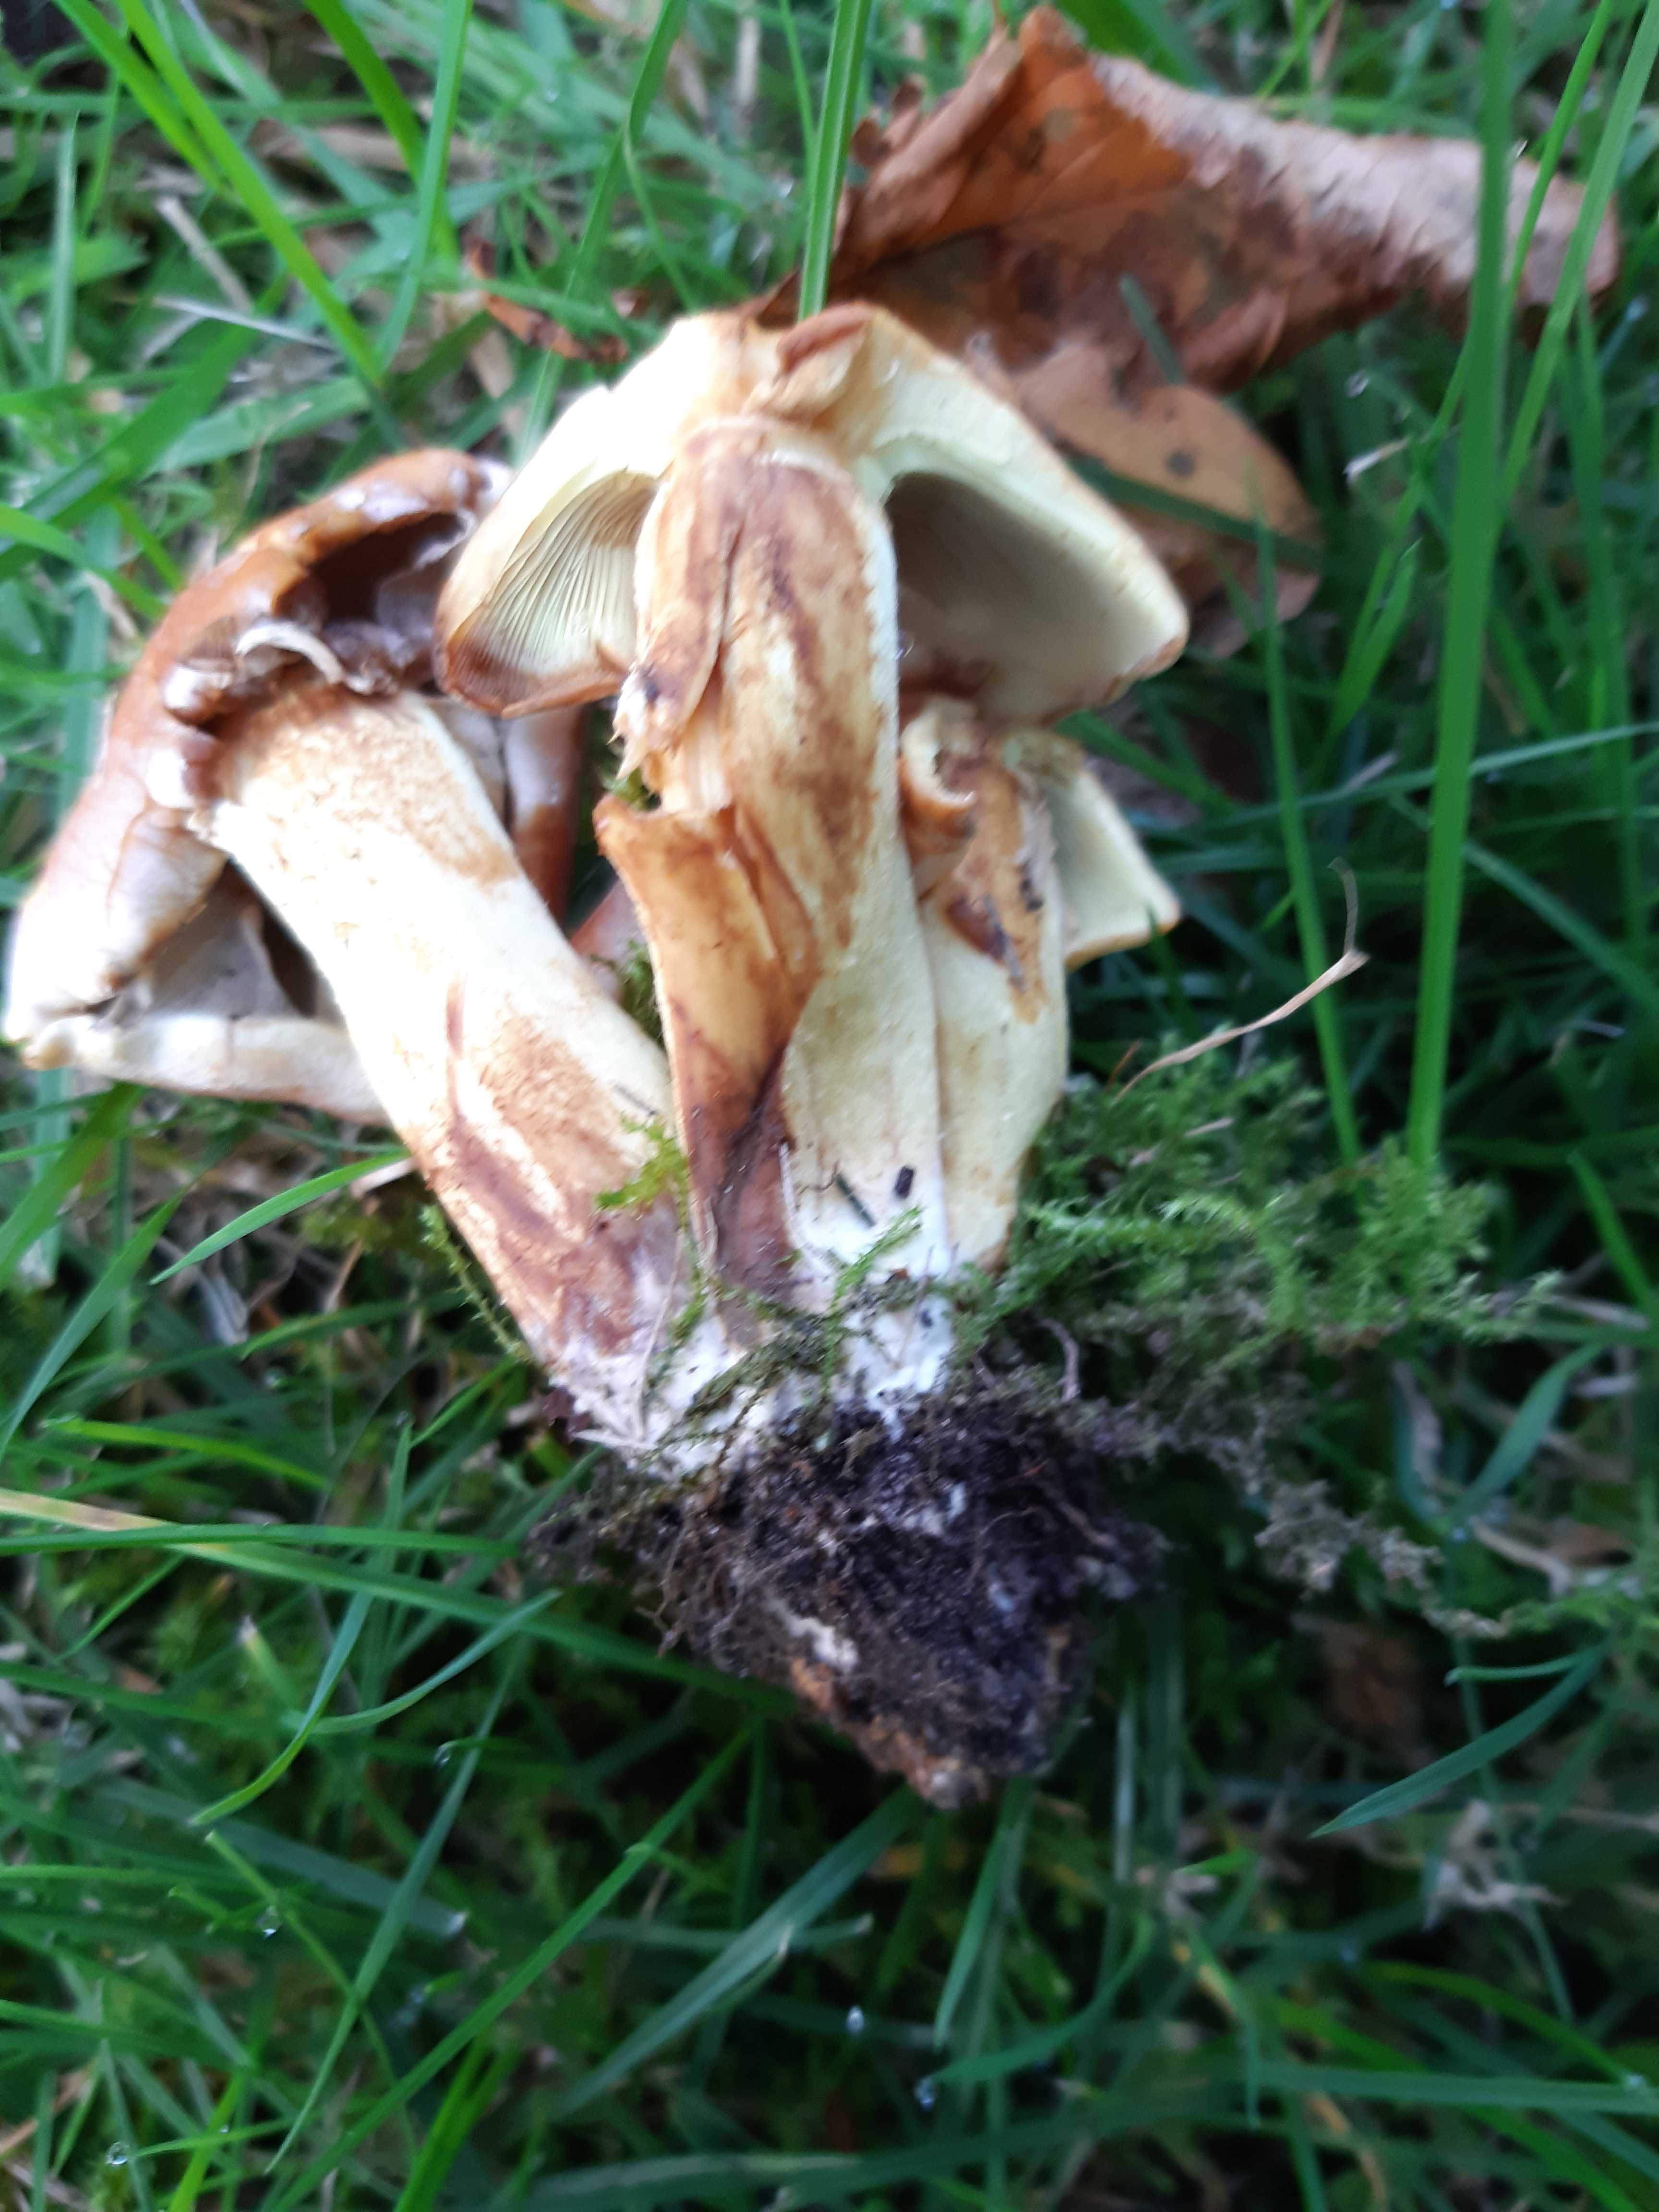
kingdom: Fungi
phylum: Basidiomycota
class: Agaricomycetes
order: Agaricales
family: Strophariaceae
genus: Hypholoma
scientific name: Hypholoma fasciculare
